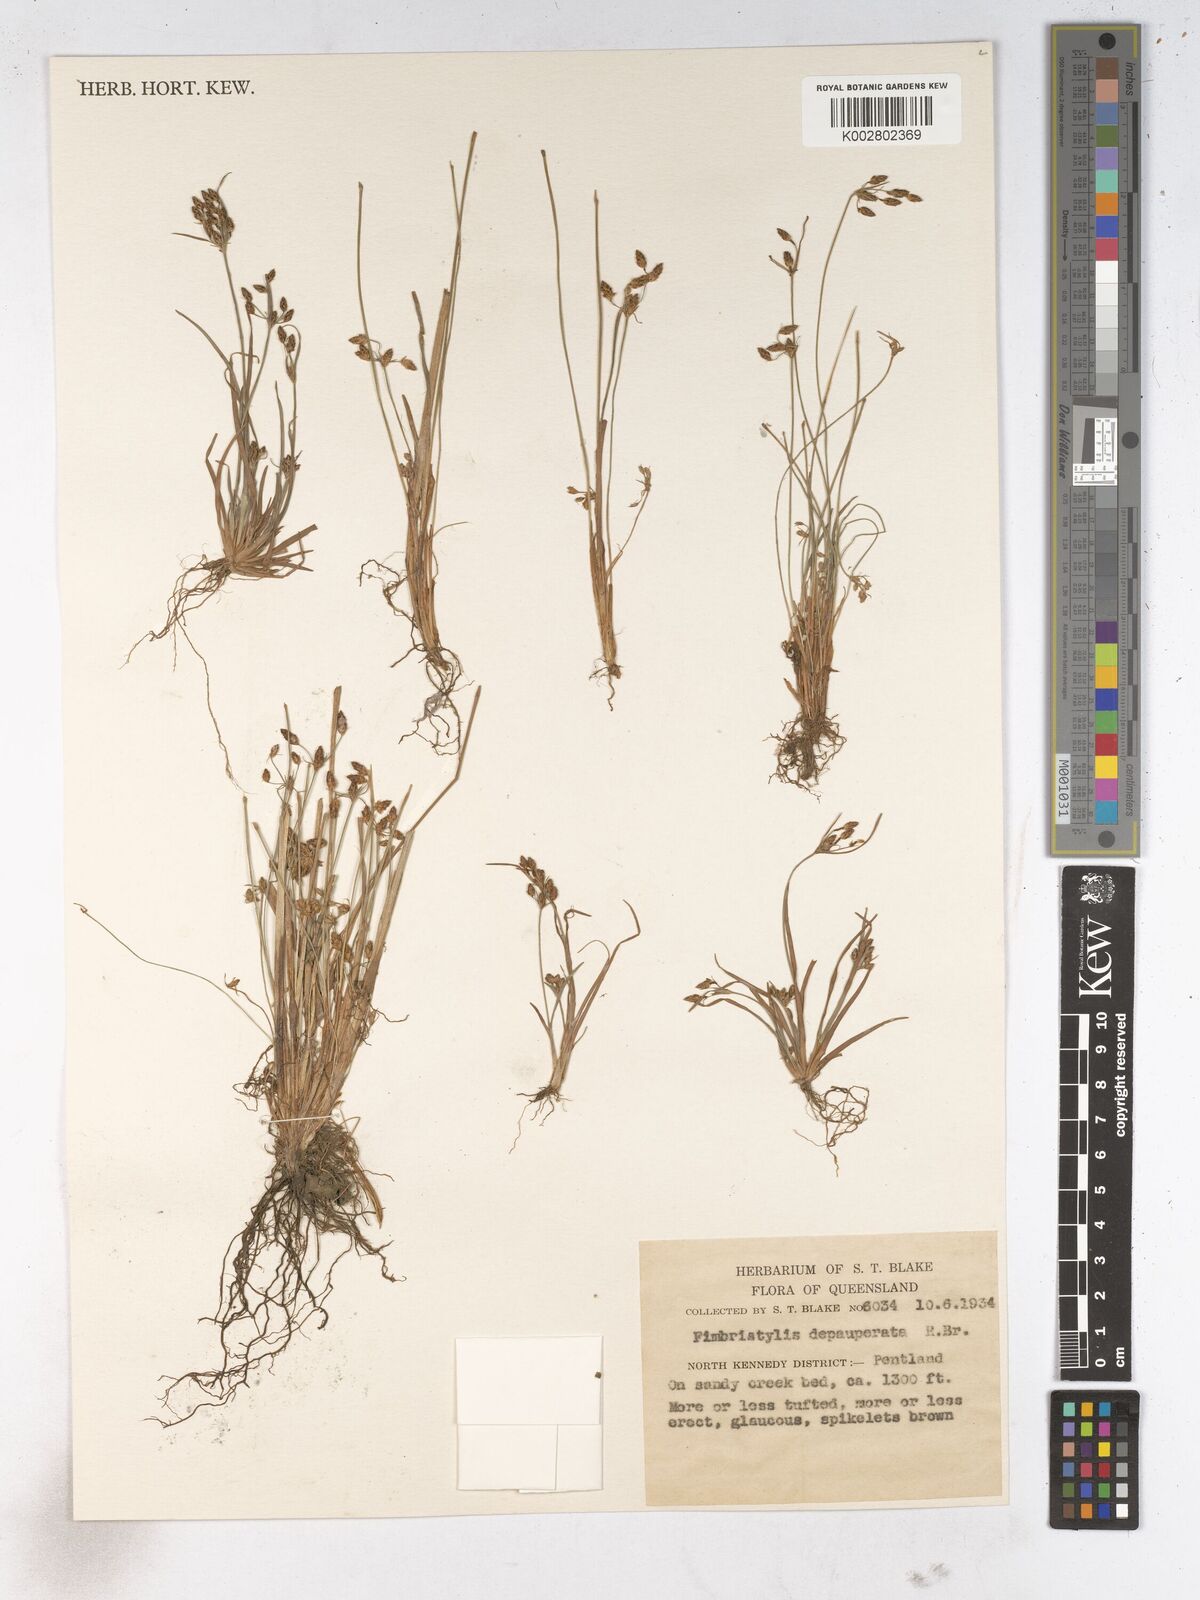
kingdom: Plantae
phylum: Tracheophyta
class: Liliopsida
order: Poales
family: Cyperaceae
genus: Fimbristylis
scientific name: Fimbristylis dichotoma
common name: Forked fimbry
